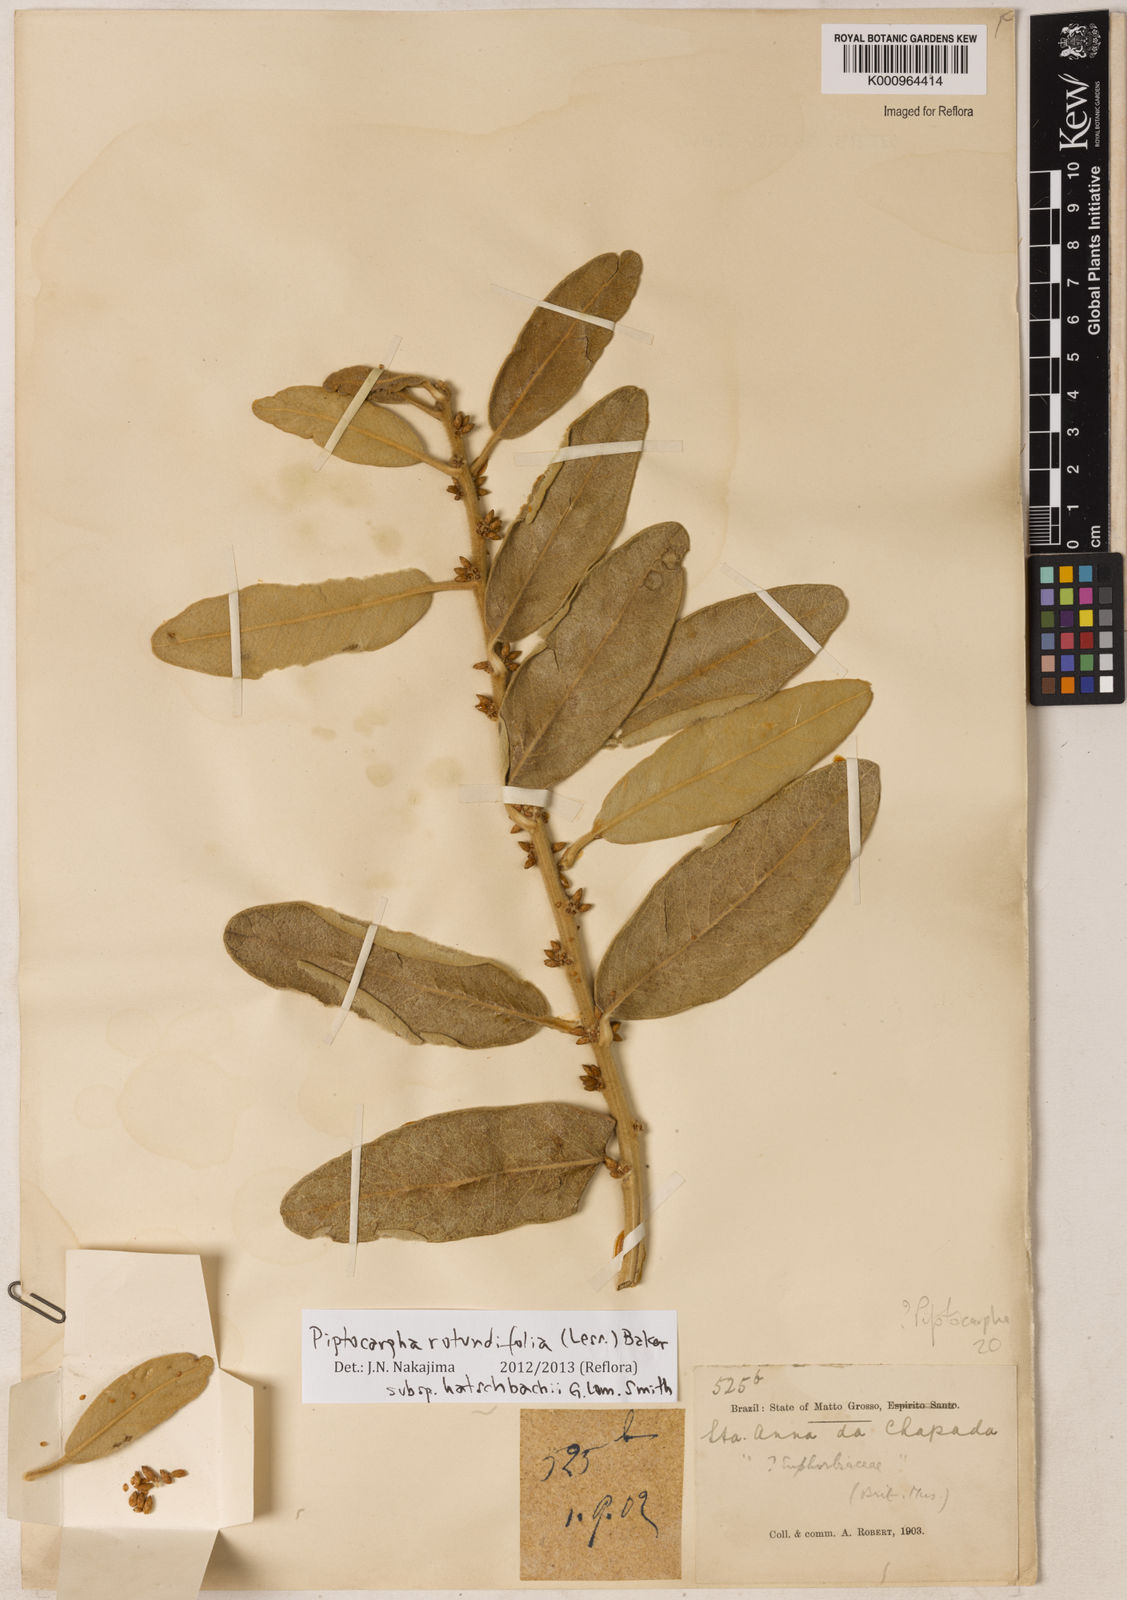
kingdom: Plantae
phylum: Tracheophyta
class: Magnoliopsida
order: Asterales
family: Asteraceae
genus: Piptocarpha
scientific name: Piptocarpha rotundifolia
